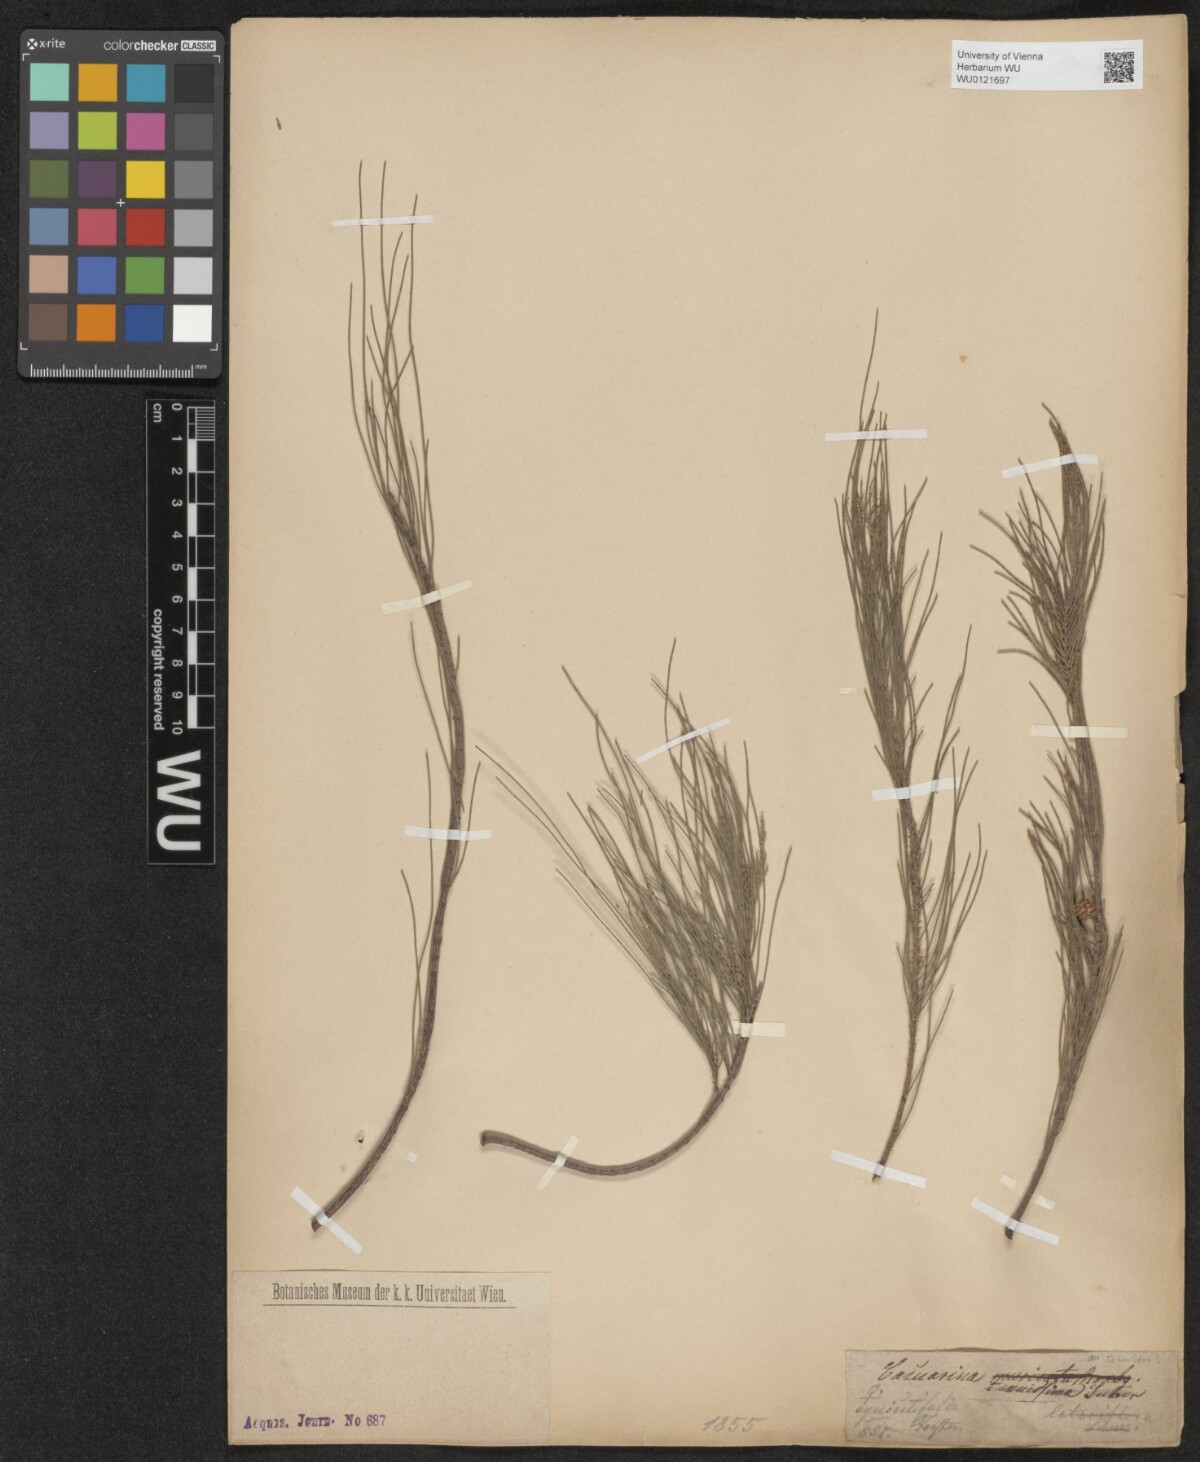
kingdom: Plantae
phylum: Tracheophyta
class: Magnoliopsida
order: Fagales
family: Casuarinaceae
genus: Casuarina
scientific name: Casuarina stricta
